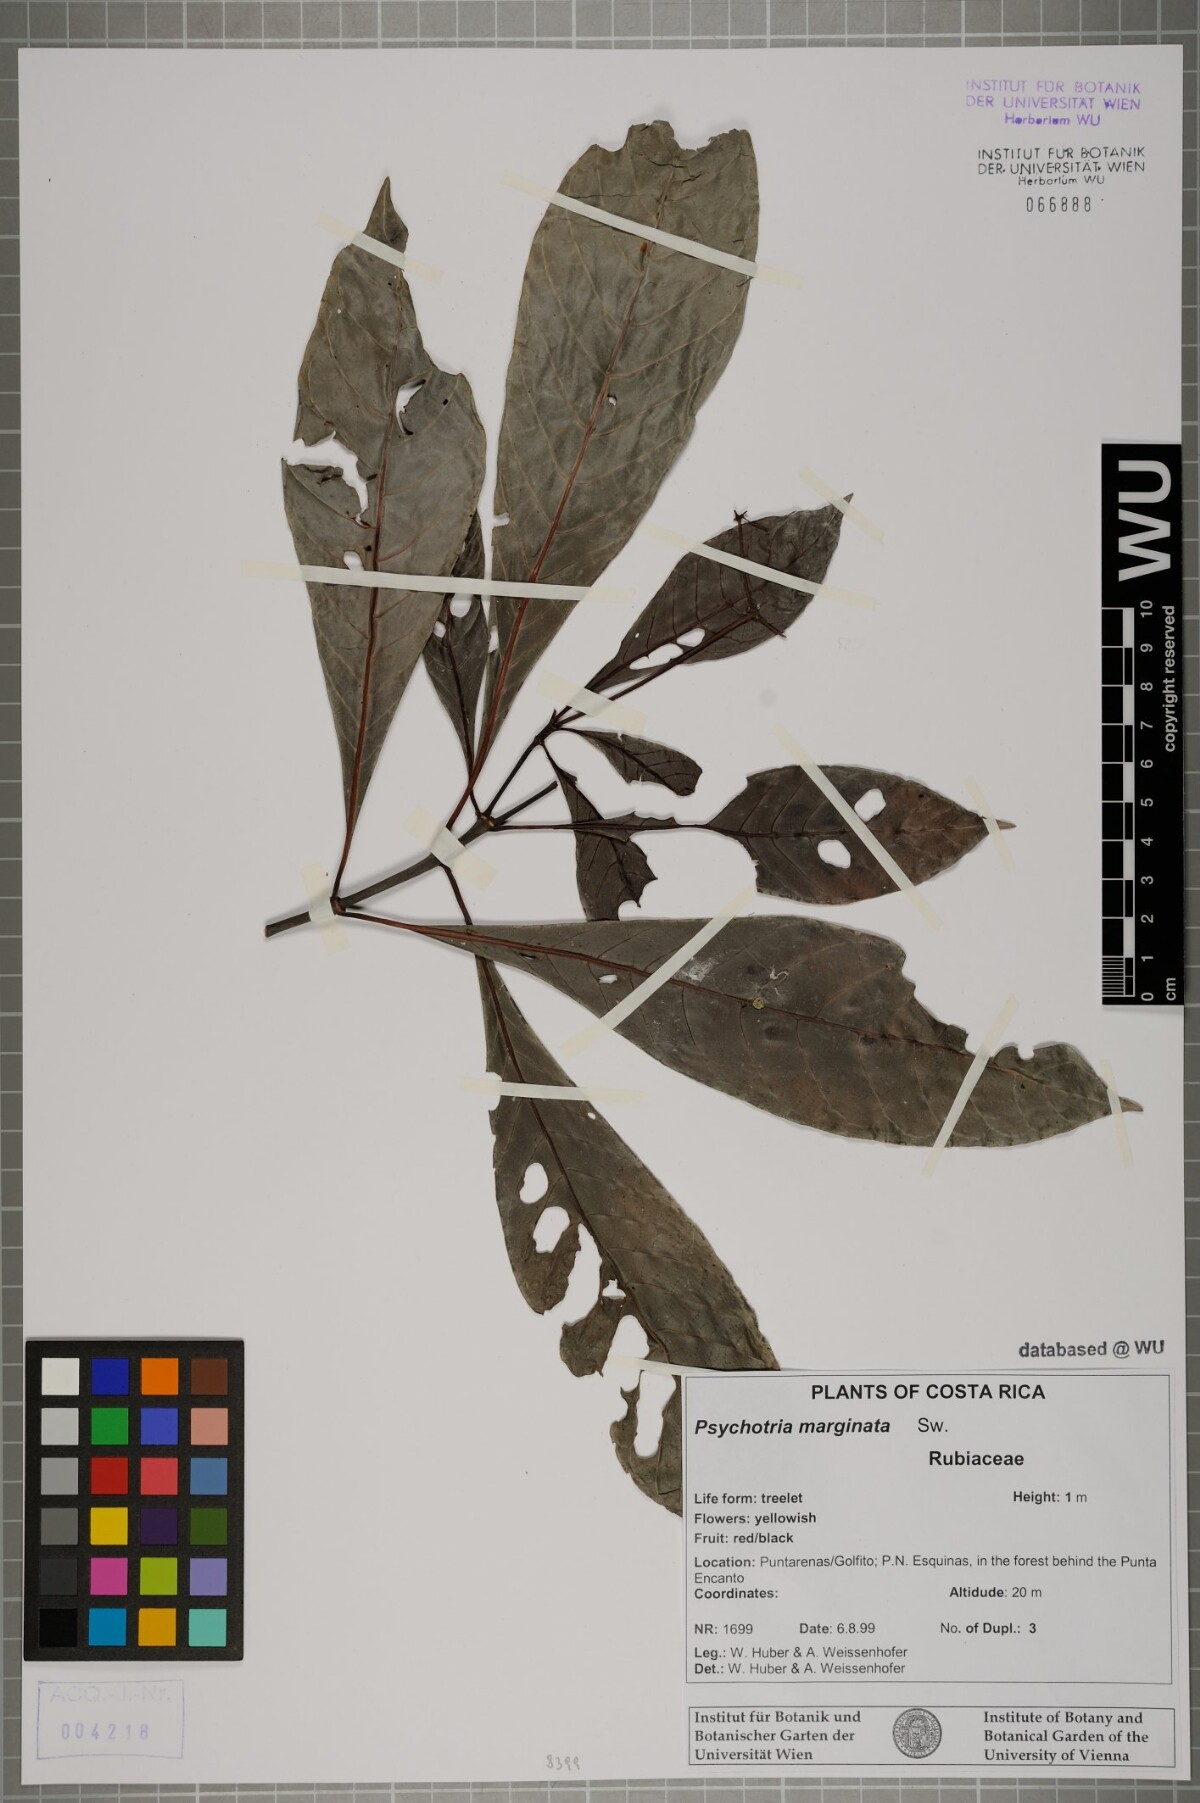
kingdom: Plantae
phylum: Tracheophyta
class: Magnoliopsida
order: Gentianales
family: Rubiaceae
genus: Psychotria
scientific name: Psychotria marginata
